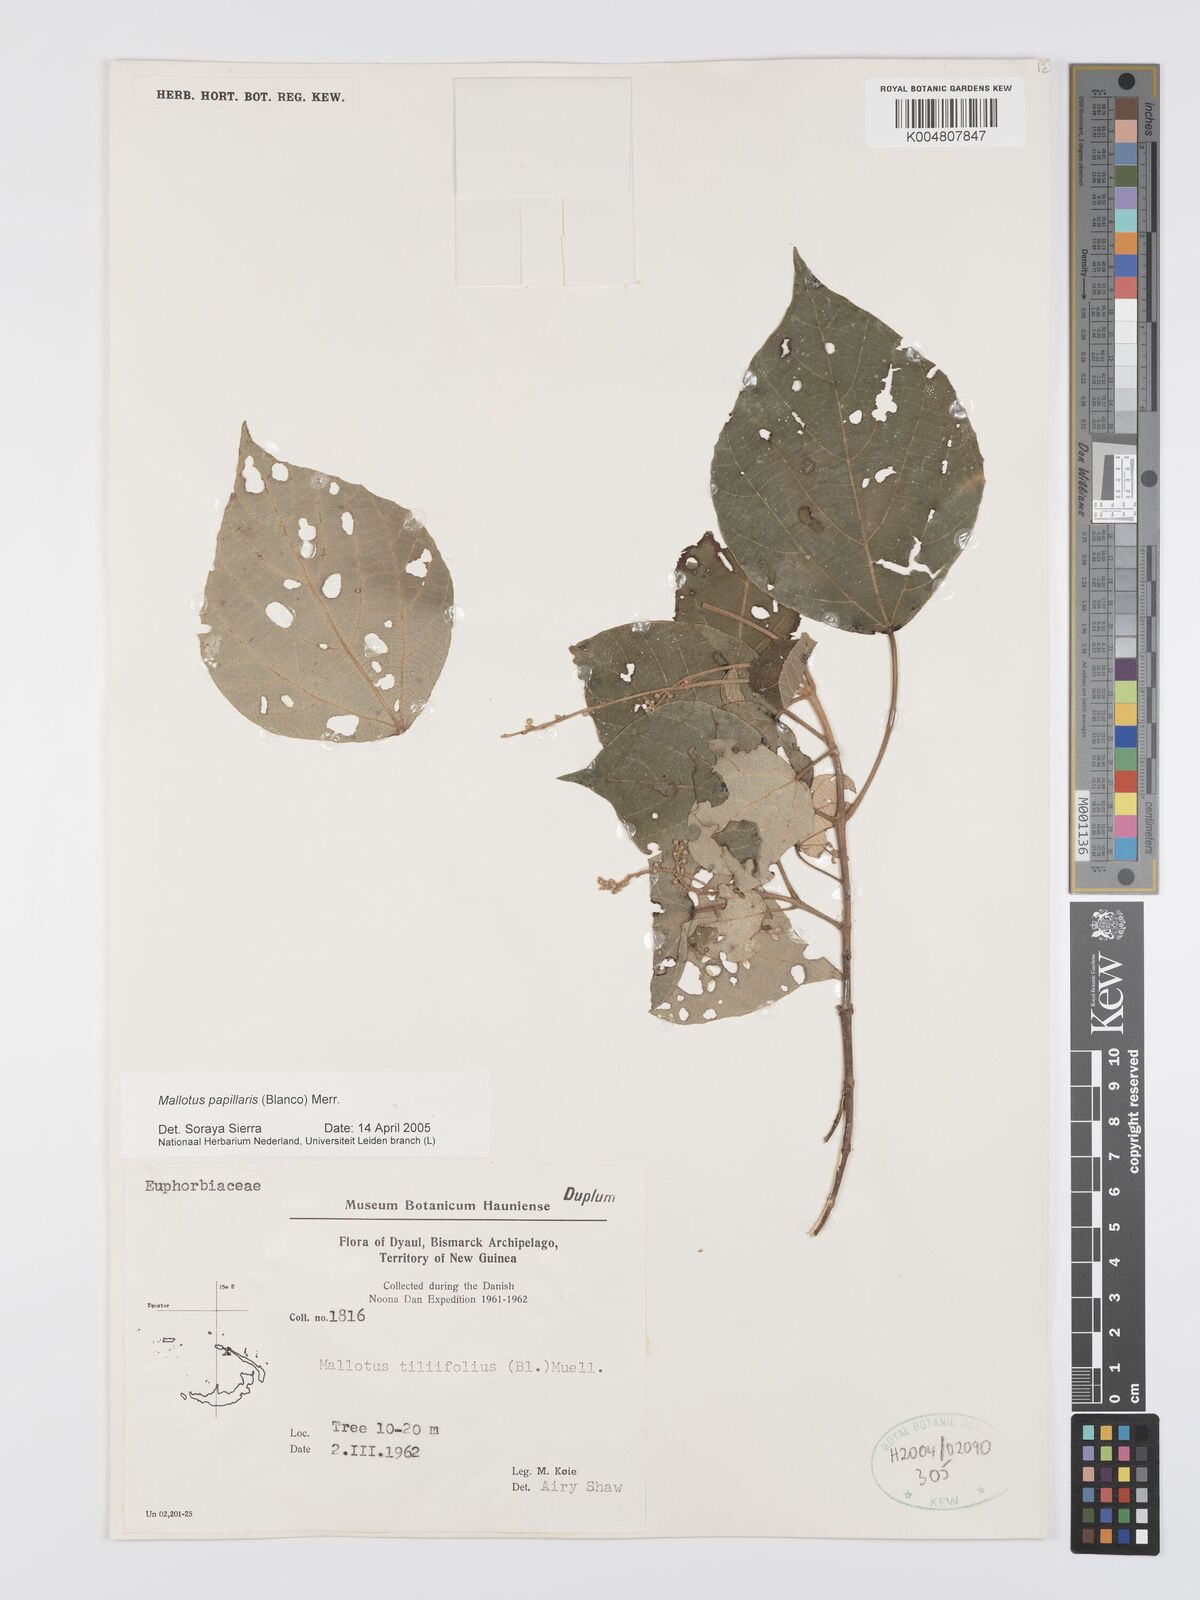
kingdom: Plantae
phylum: Tracheophyta
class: Magnoliopsida
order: Malpighiales
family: Euphorbiaceae
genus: Mallotus
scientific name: Mallotus tiliifolius
